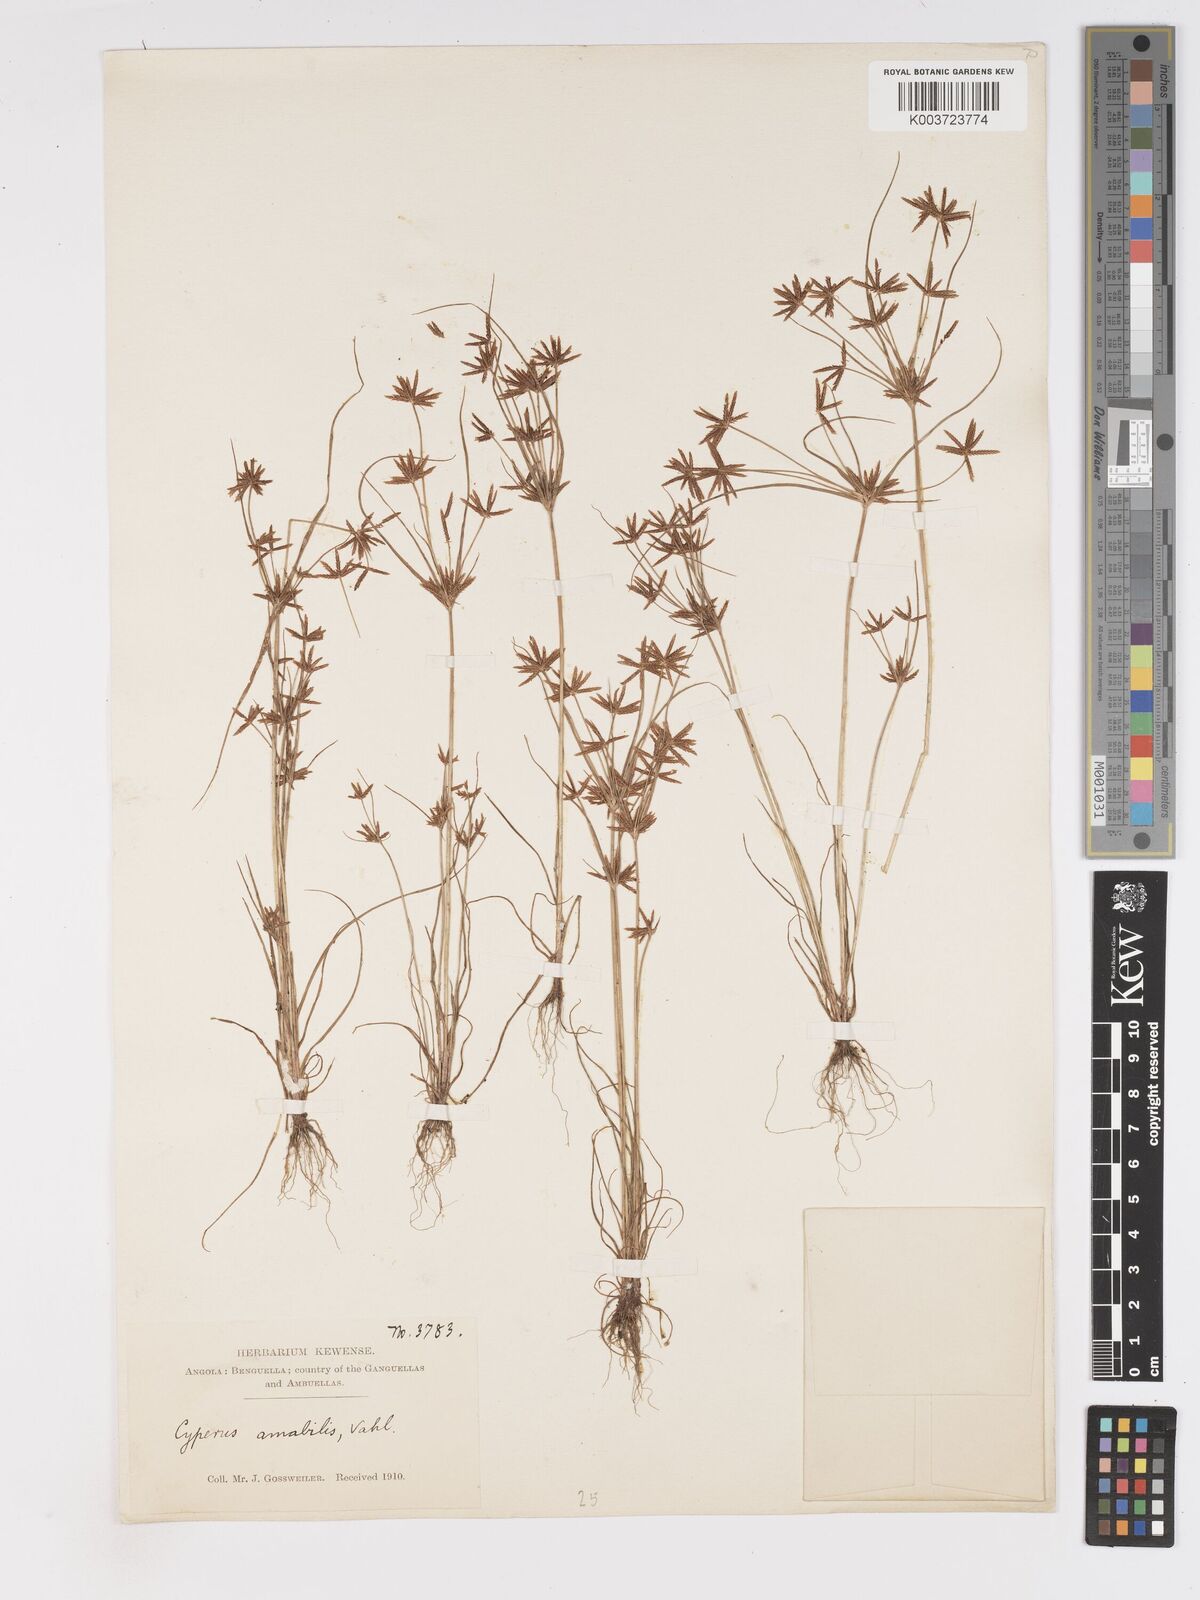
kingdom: Plantae
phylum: Tracheophyta
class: Liliopsida
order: Poales
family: Cyperaceae
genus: Cyperus
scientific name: Cyperus amabilis
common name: Foothill flat sedge
